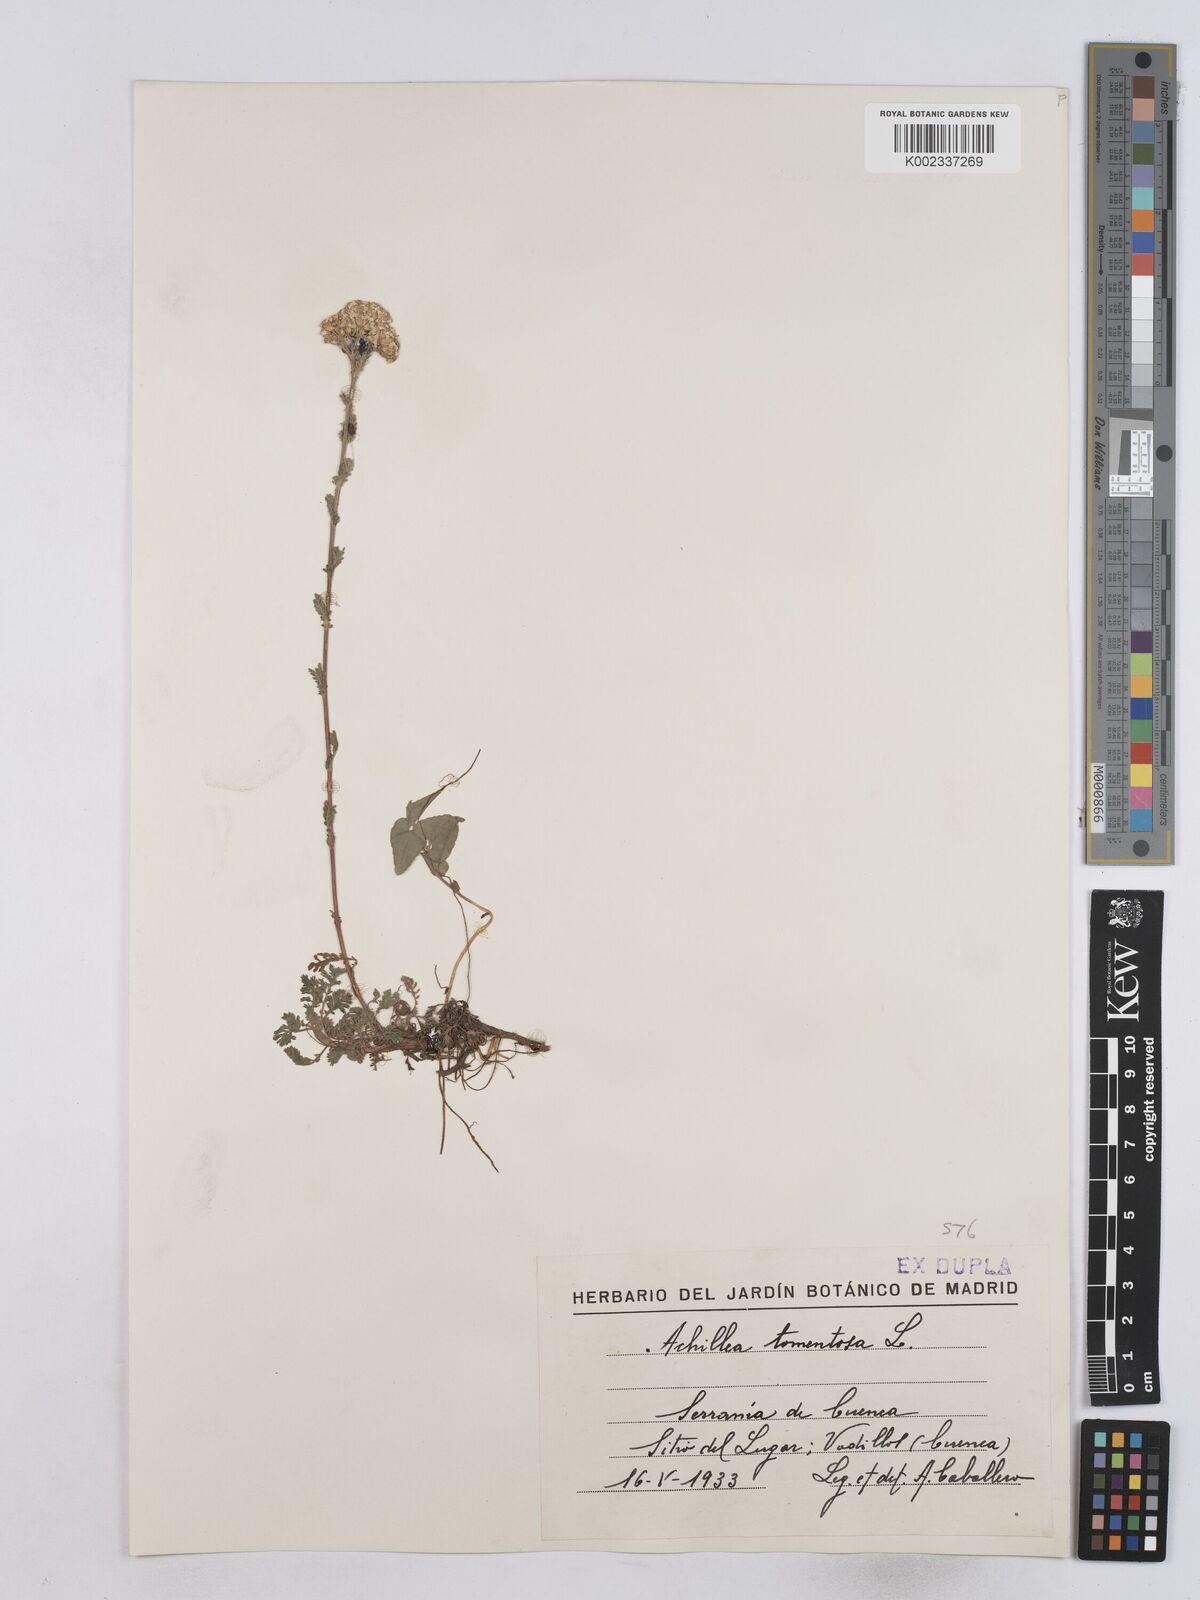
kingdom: Plantae
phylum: Tracheophyta
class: Magnoliopsida
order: Asterales
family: Asteraceae
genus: Achillea
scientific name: Achillea tomentosa
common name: Yellow milfoil
